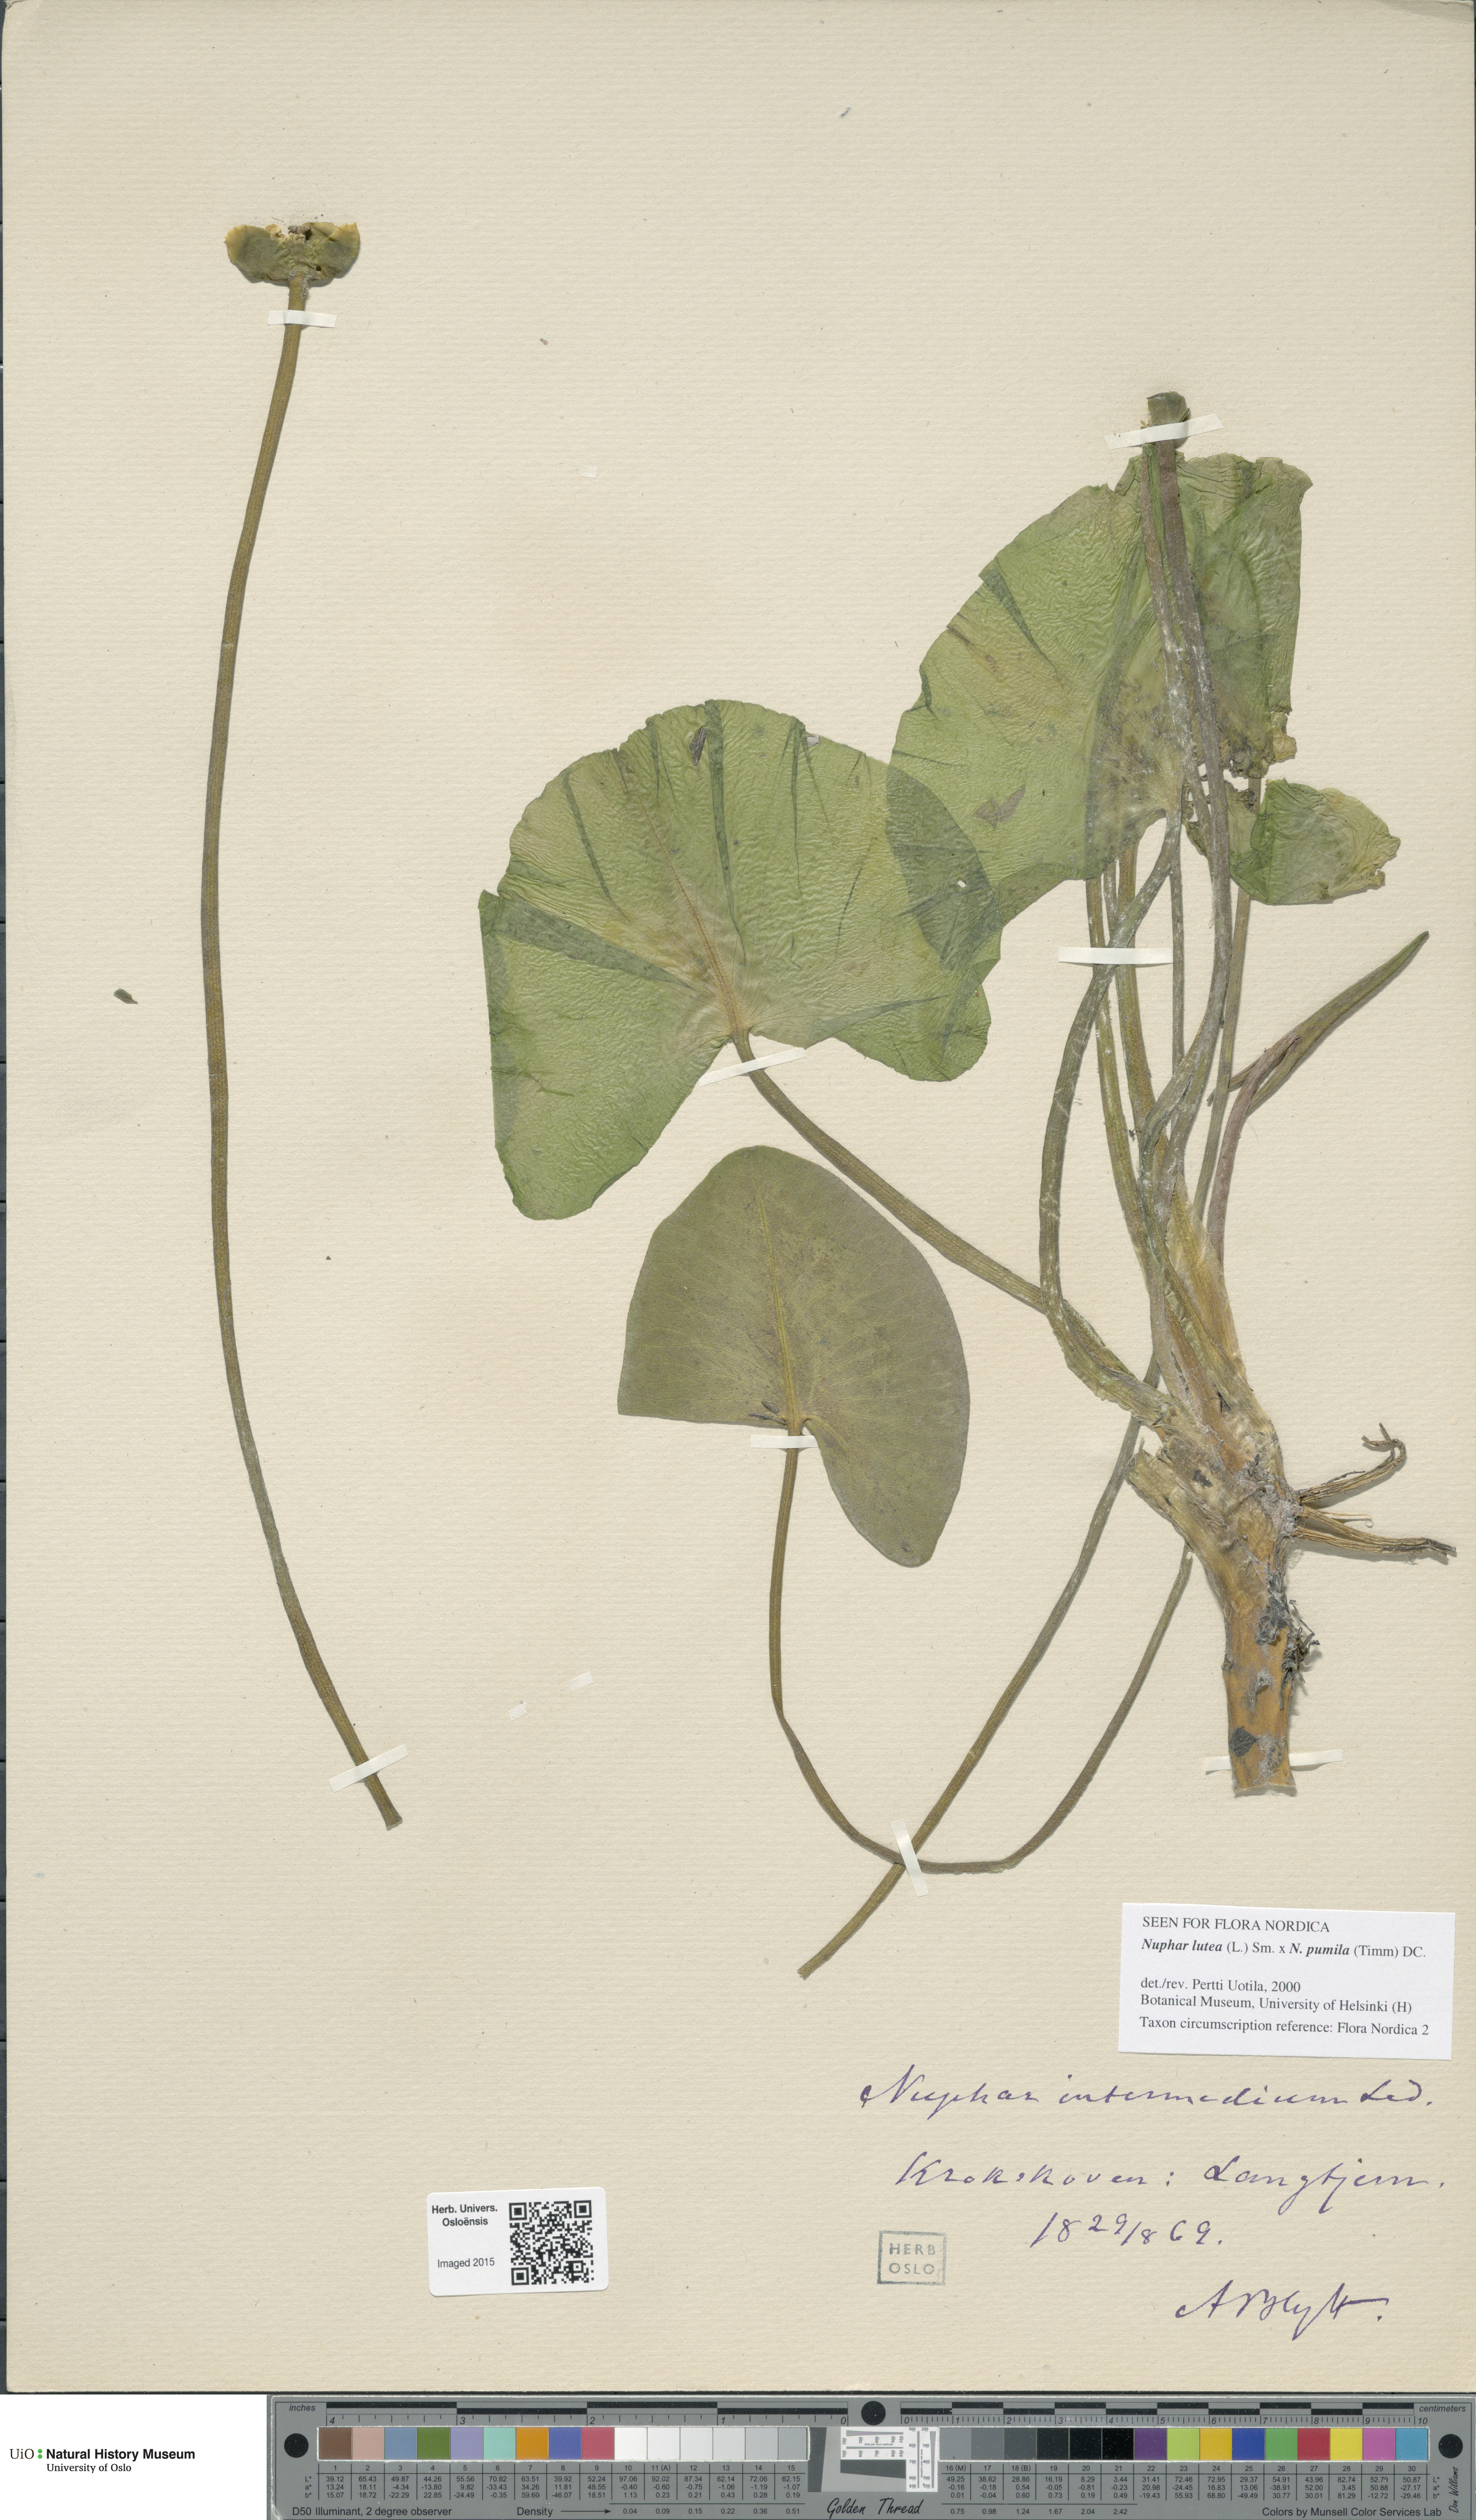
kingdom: Plantae
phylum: Tracheophyta
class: Magnoliopsida
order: Nymphaeales
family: Nymphaeaceae
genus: Nuphar
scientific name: Nuphar
